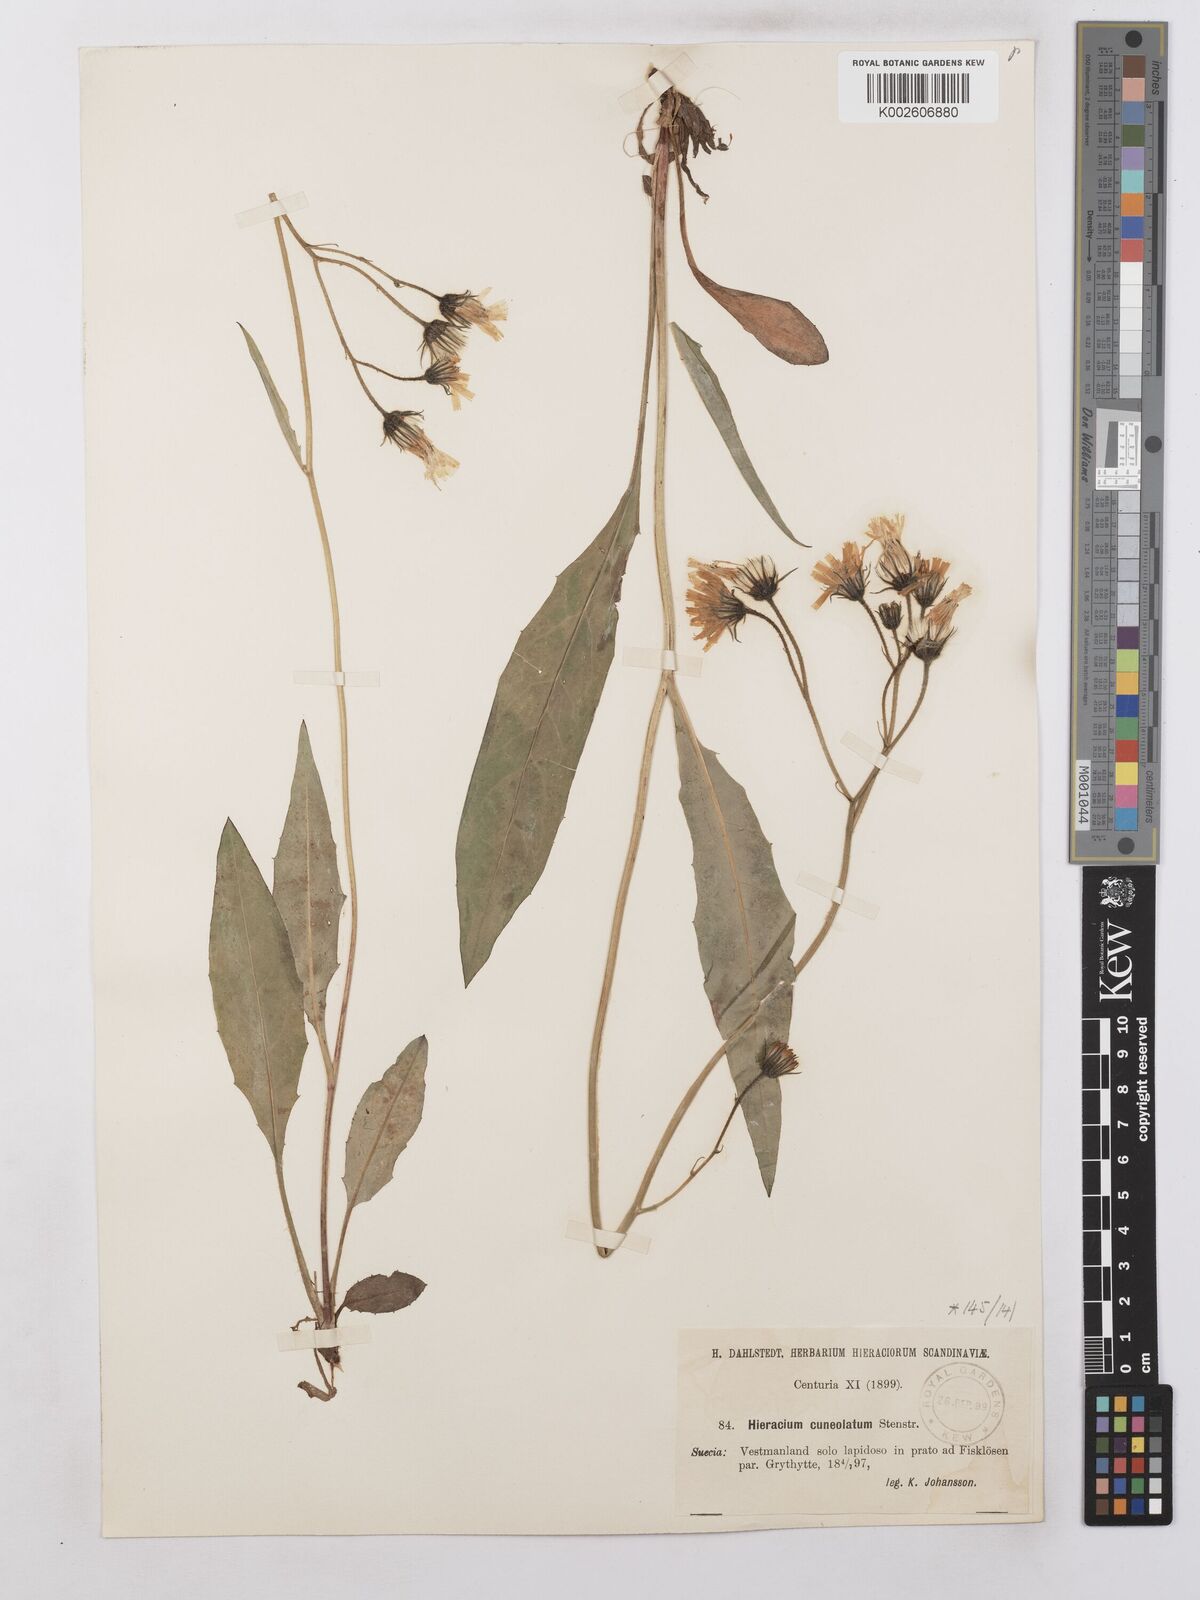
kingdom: Plantae
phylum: Tracheophyta
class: Magnoliopsida
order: Asterales
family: Asteraceae
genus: Hieracium
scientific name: Hieracium levicaule
